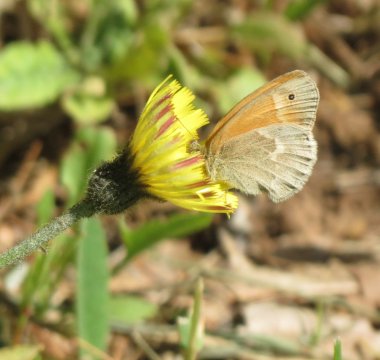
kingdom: Animalia
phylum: Arthropoda
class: Insecta
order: Lepidoptera
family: Nymphalidae
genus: Coenonympha
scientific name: Coenonympha tullia
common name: Large Heath
